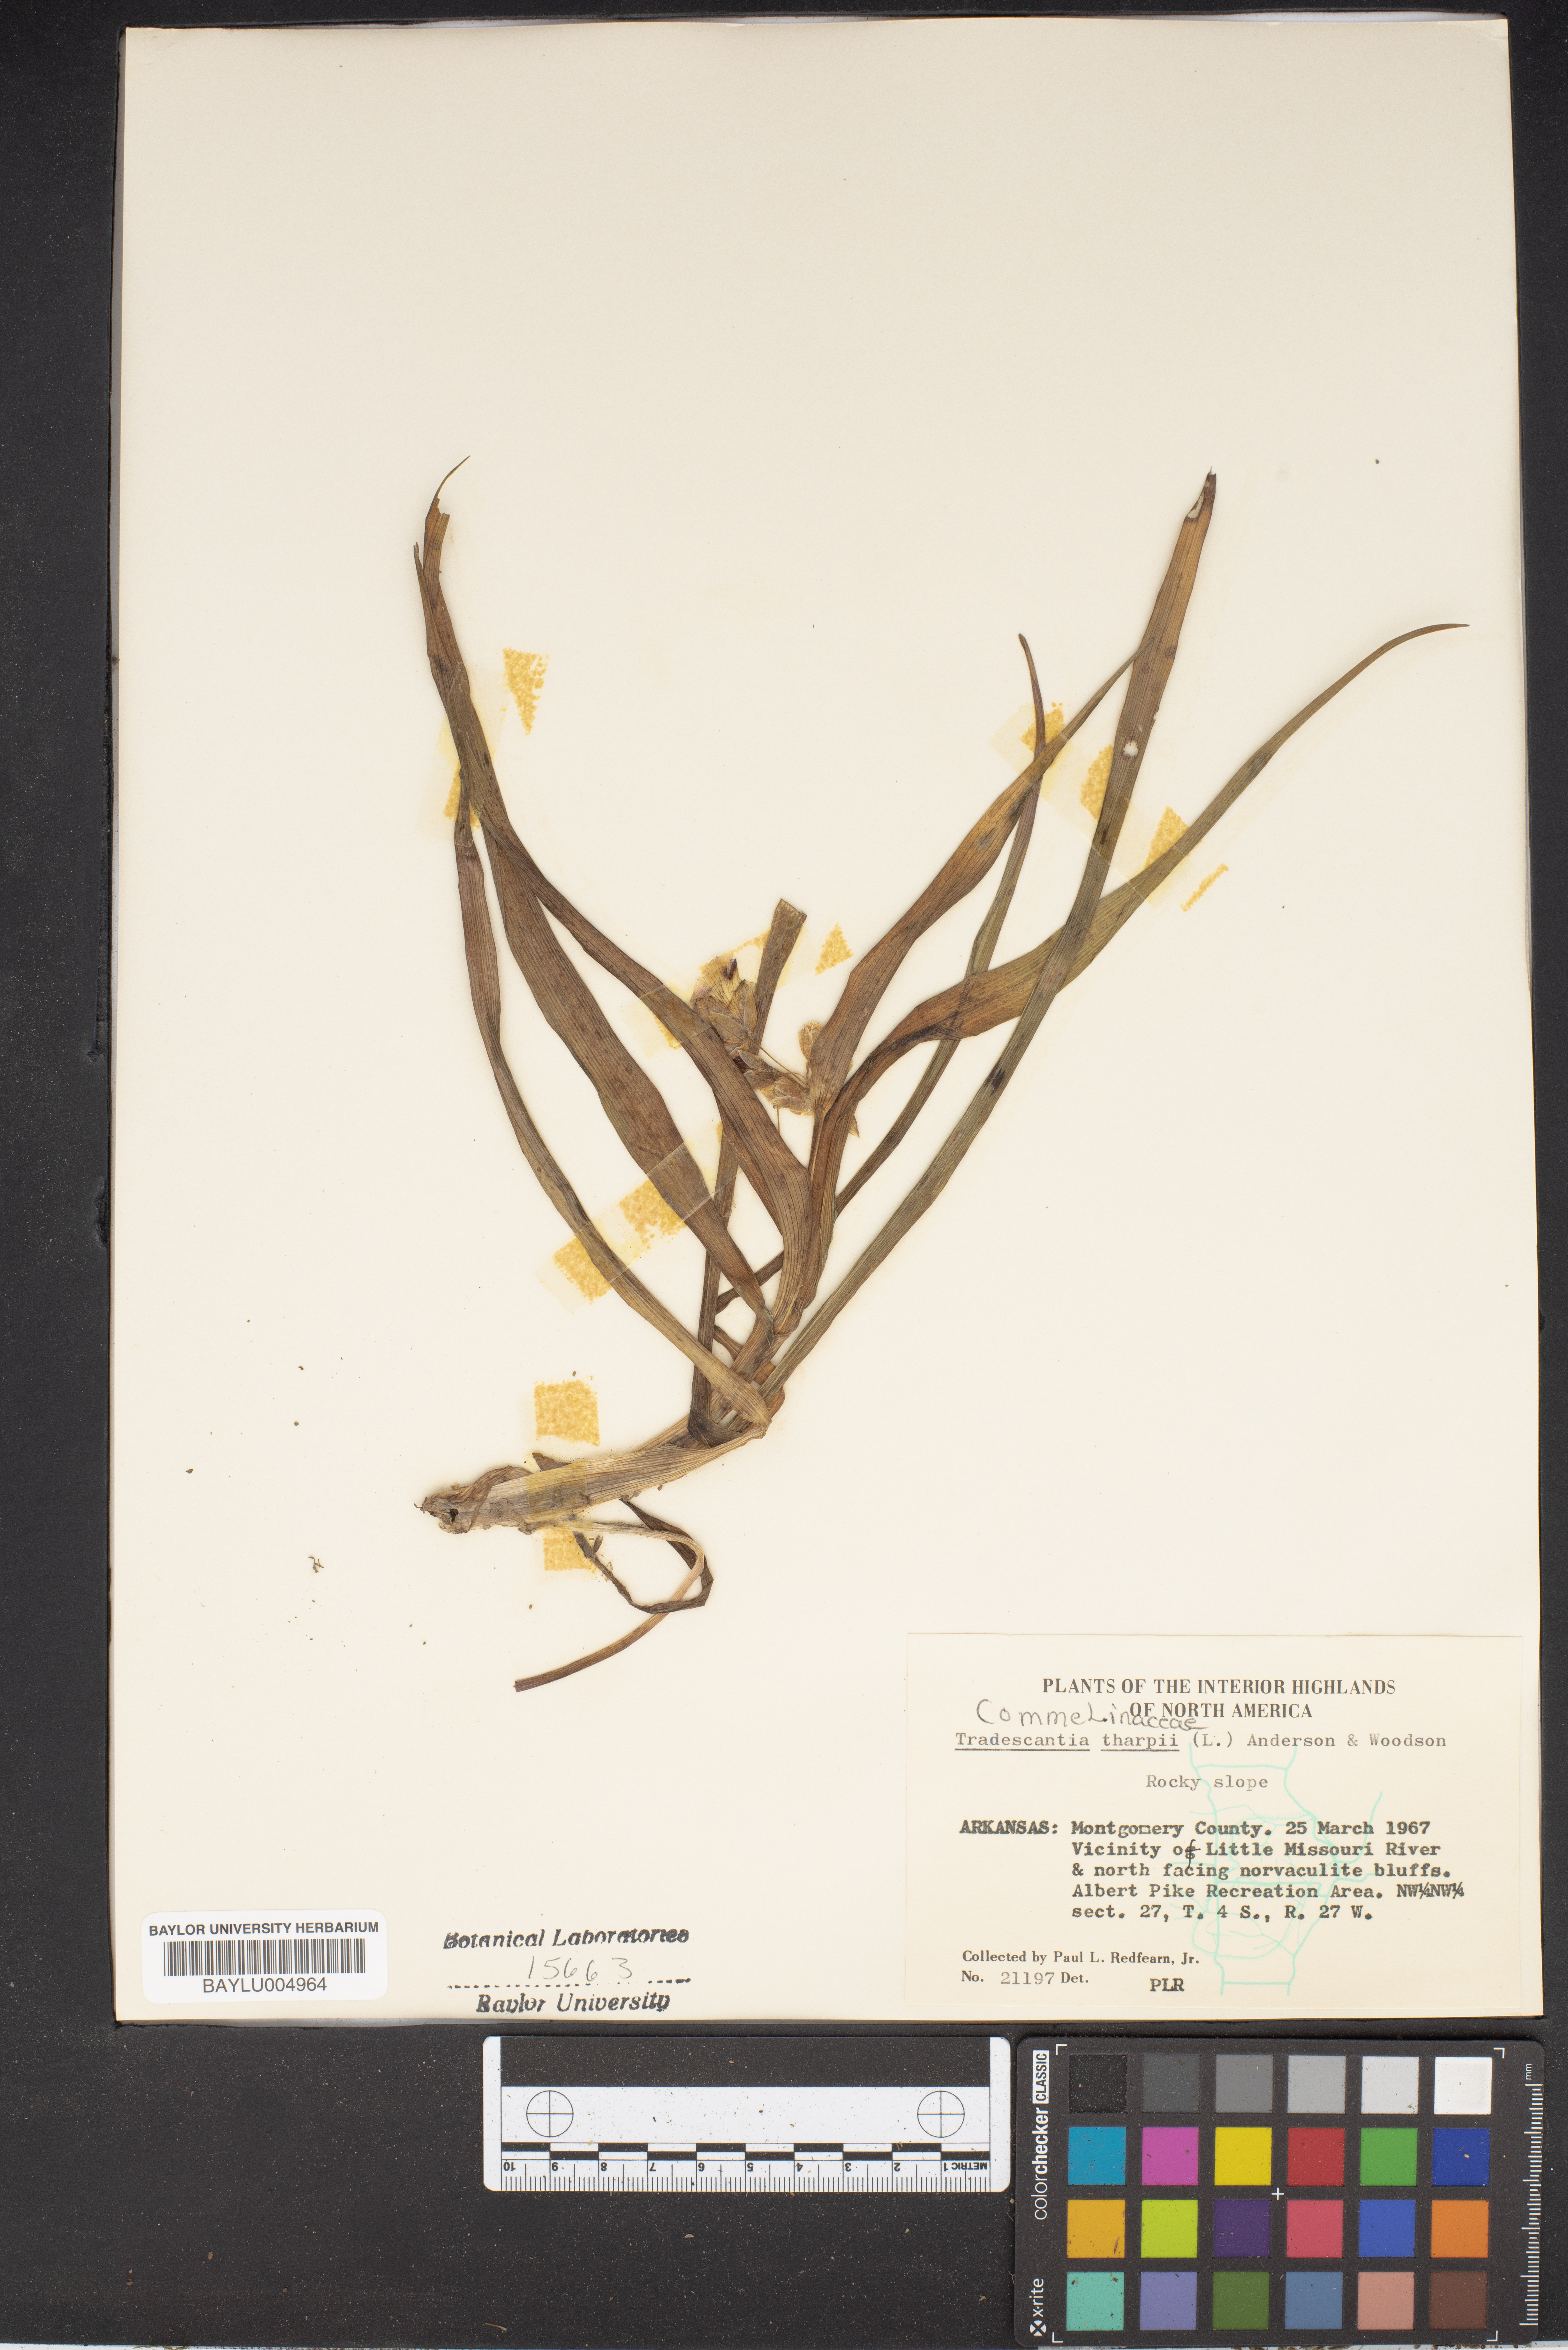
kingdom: Plantae
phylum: Tracheophyta
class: Liliopsida
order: Commelinales
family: Commelinaceae
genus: Tradescantia
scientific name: Tradescantia tharpii
